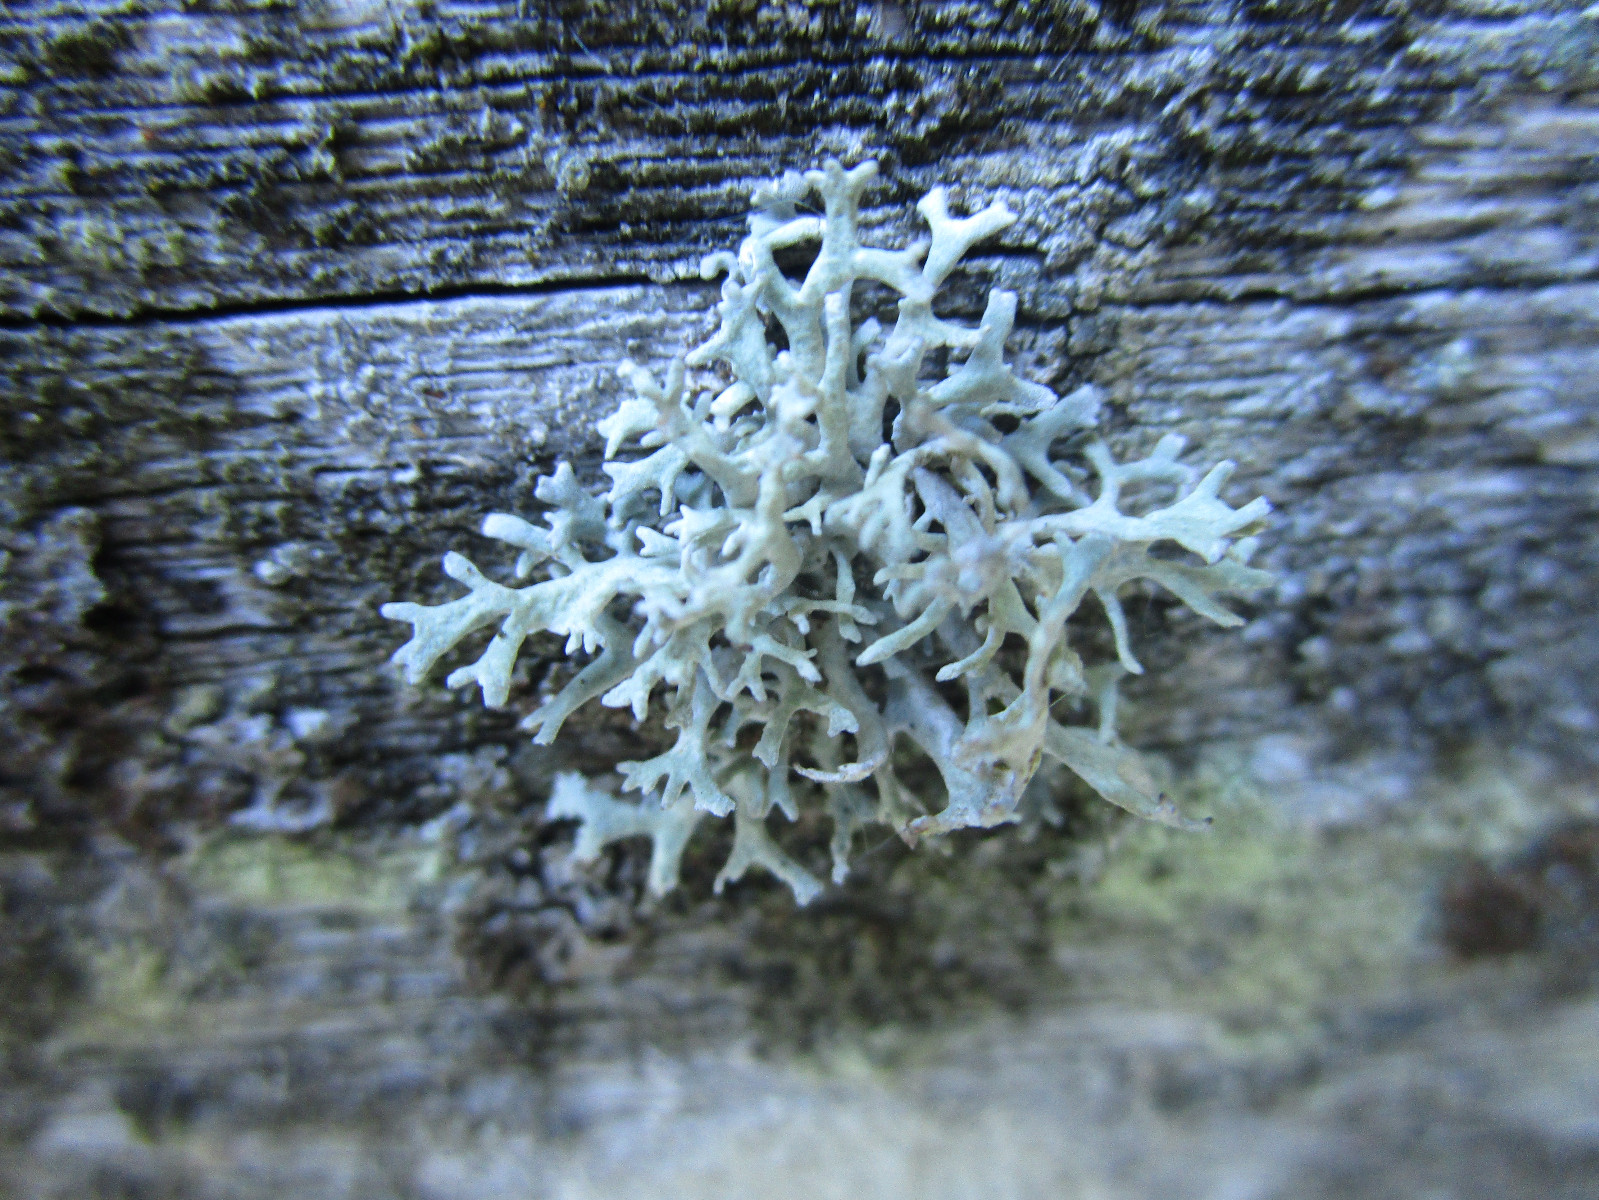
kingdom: Fungi
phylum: Ascomycota
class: Lecanoromycetes
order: Lecanorales
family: Parmeliaceae
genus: Evernia
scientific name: Evernia prunastri
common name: almindelig slåenlav
